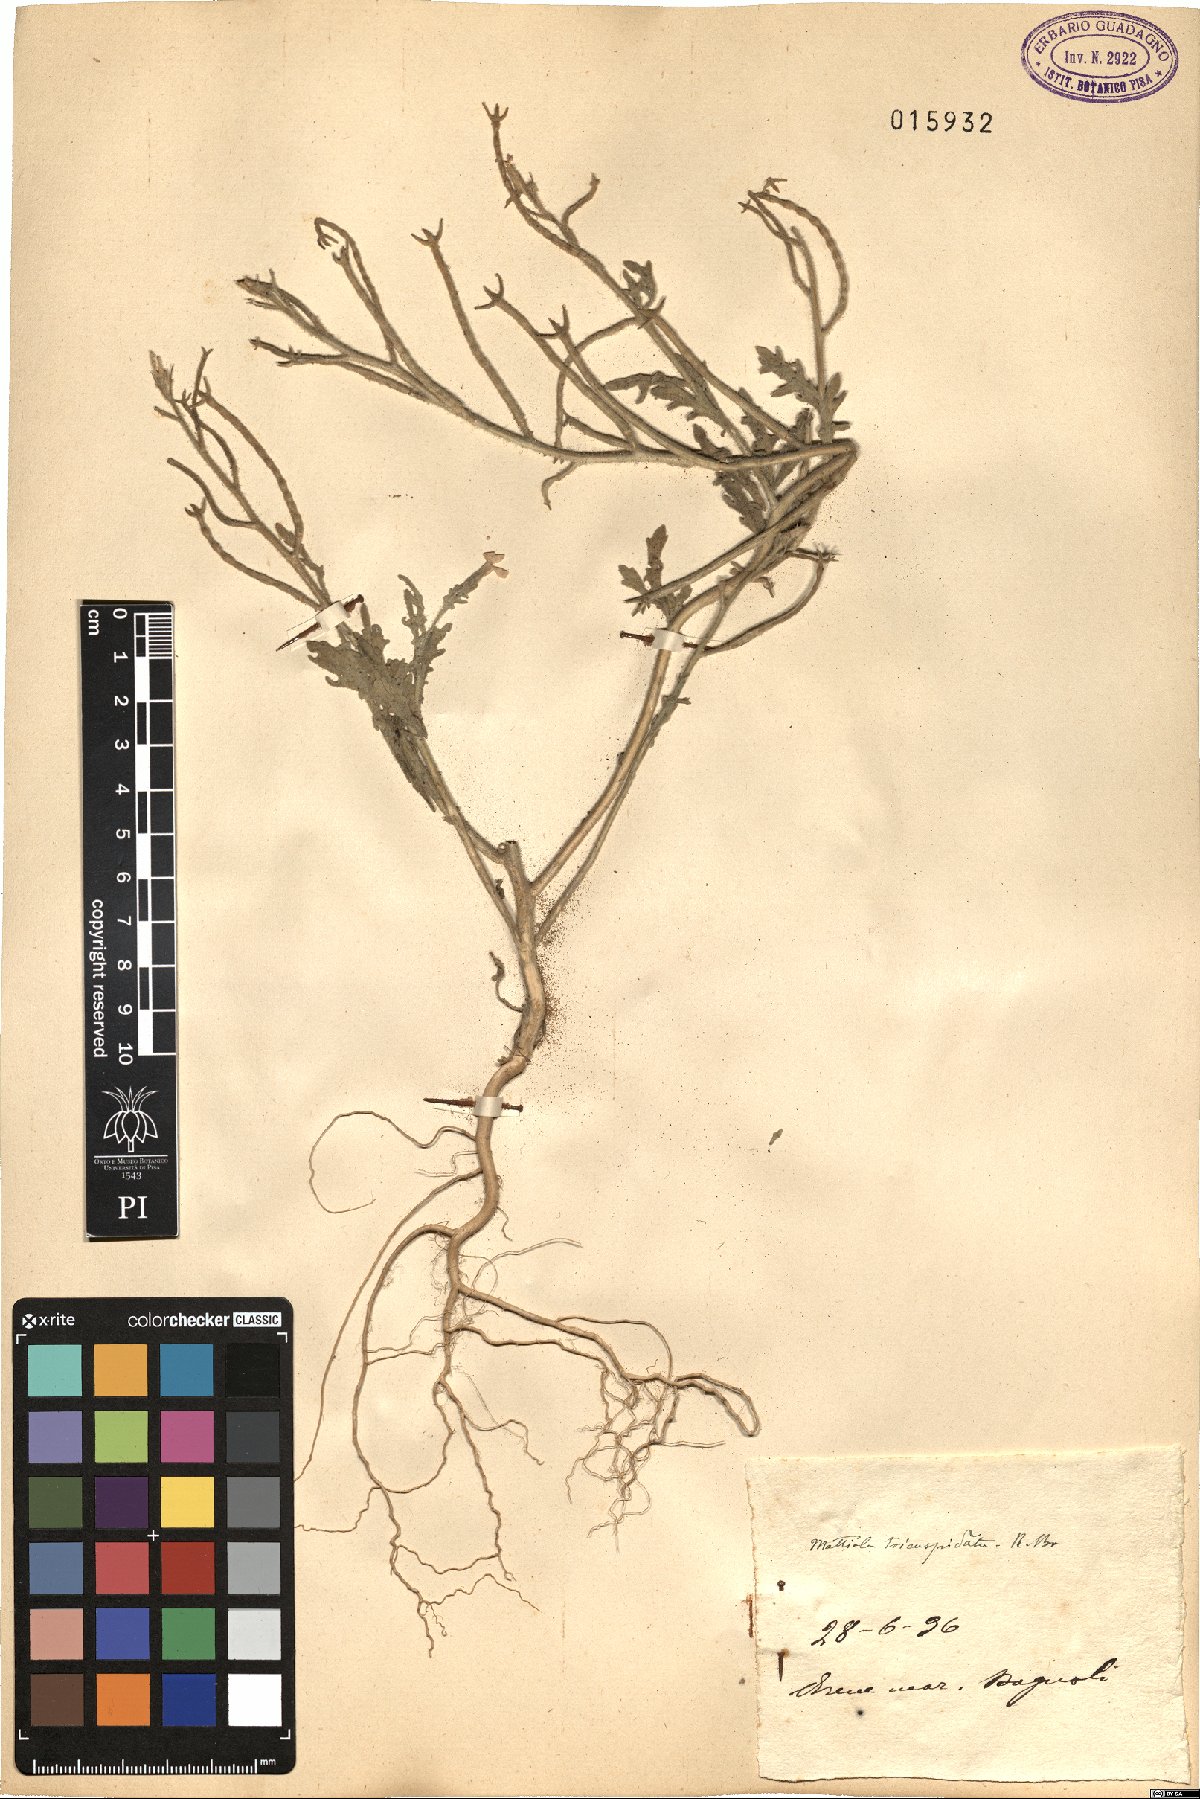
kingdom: Plantae
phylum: Tracheophyta
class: Magnoliopsida
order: Brassicales
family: Brassicaceae
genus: Matthiola
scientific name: Matthiola tricuspidata
